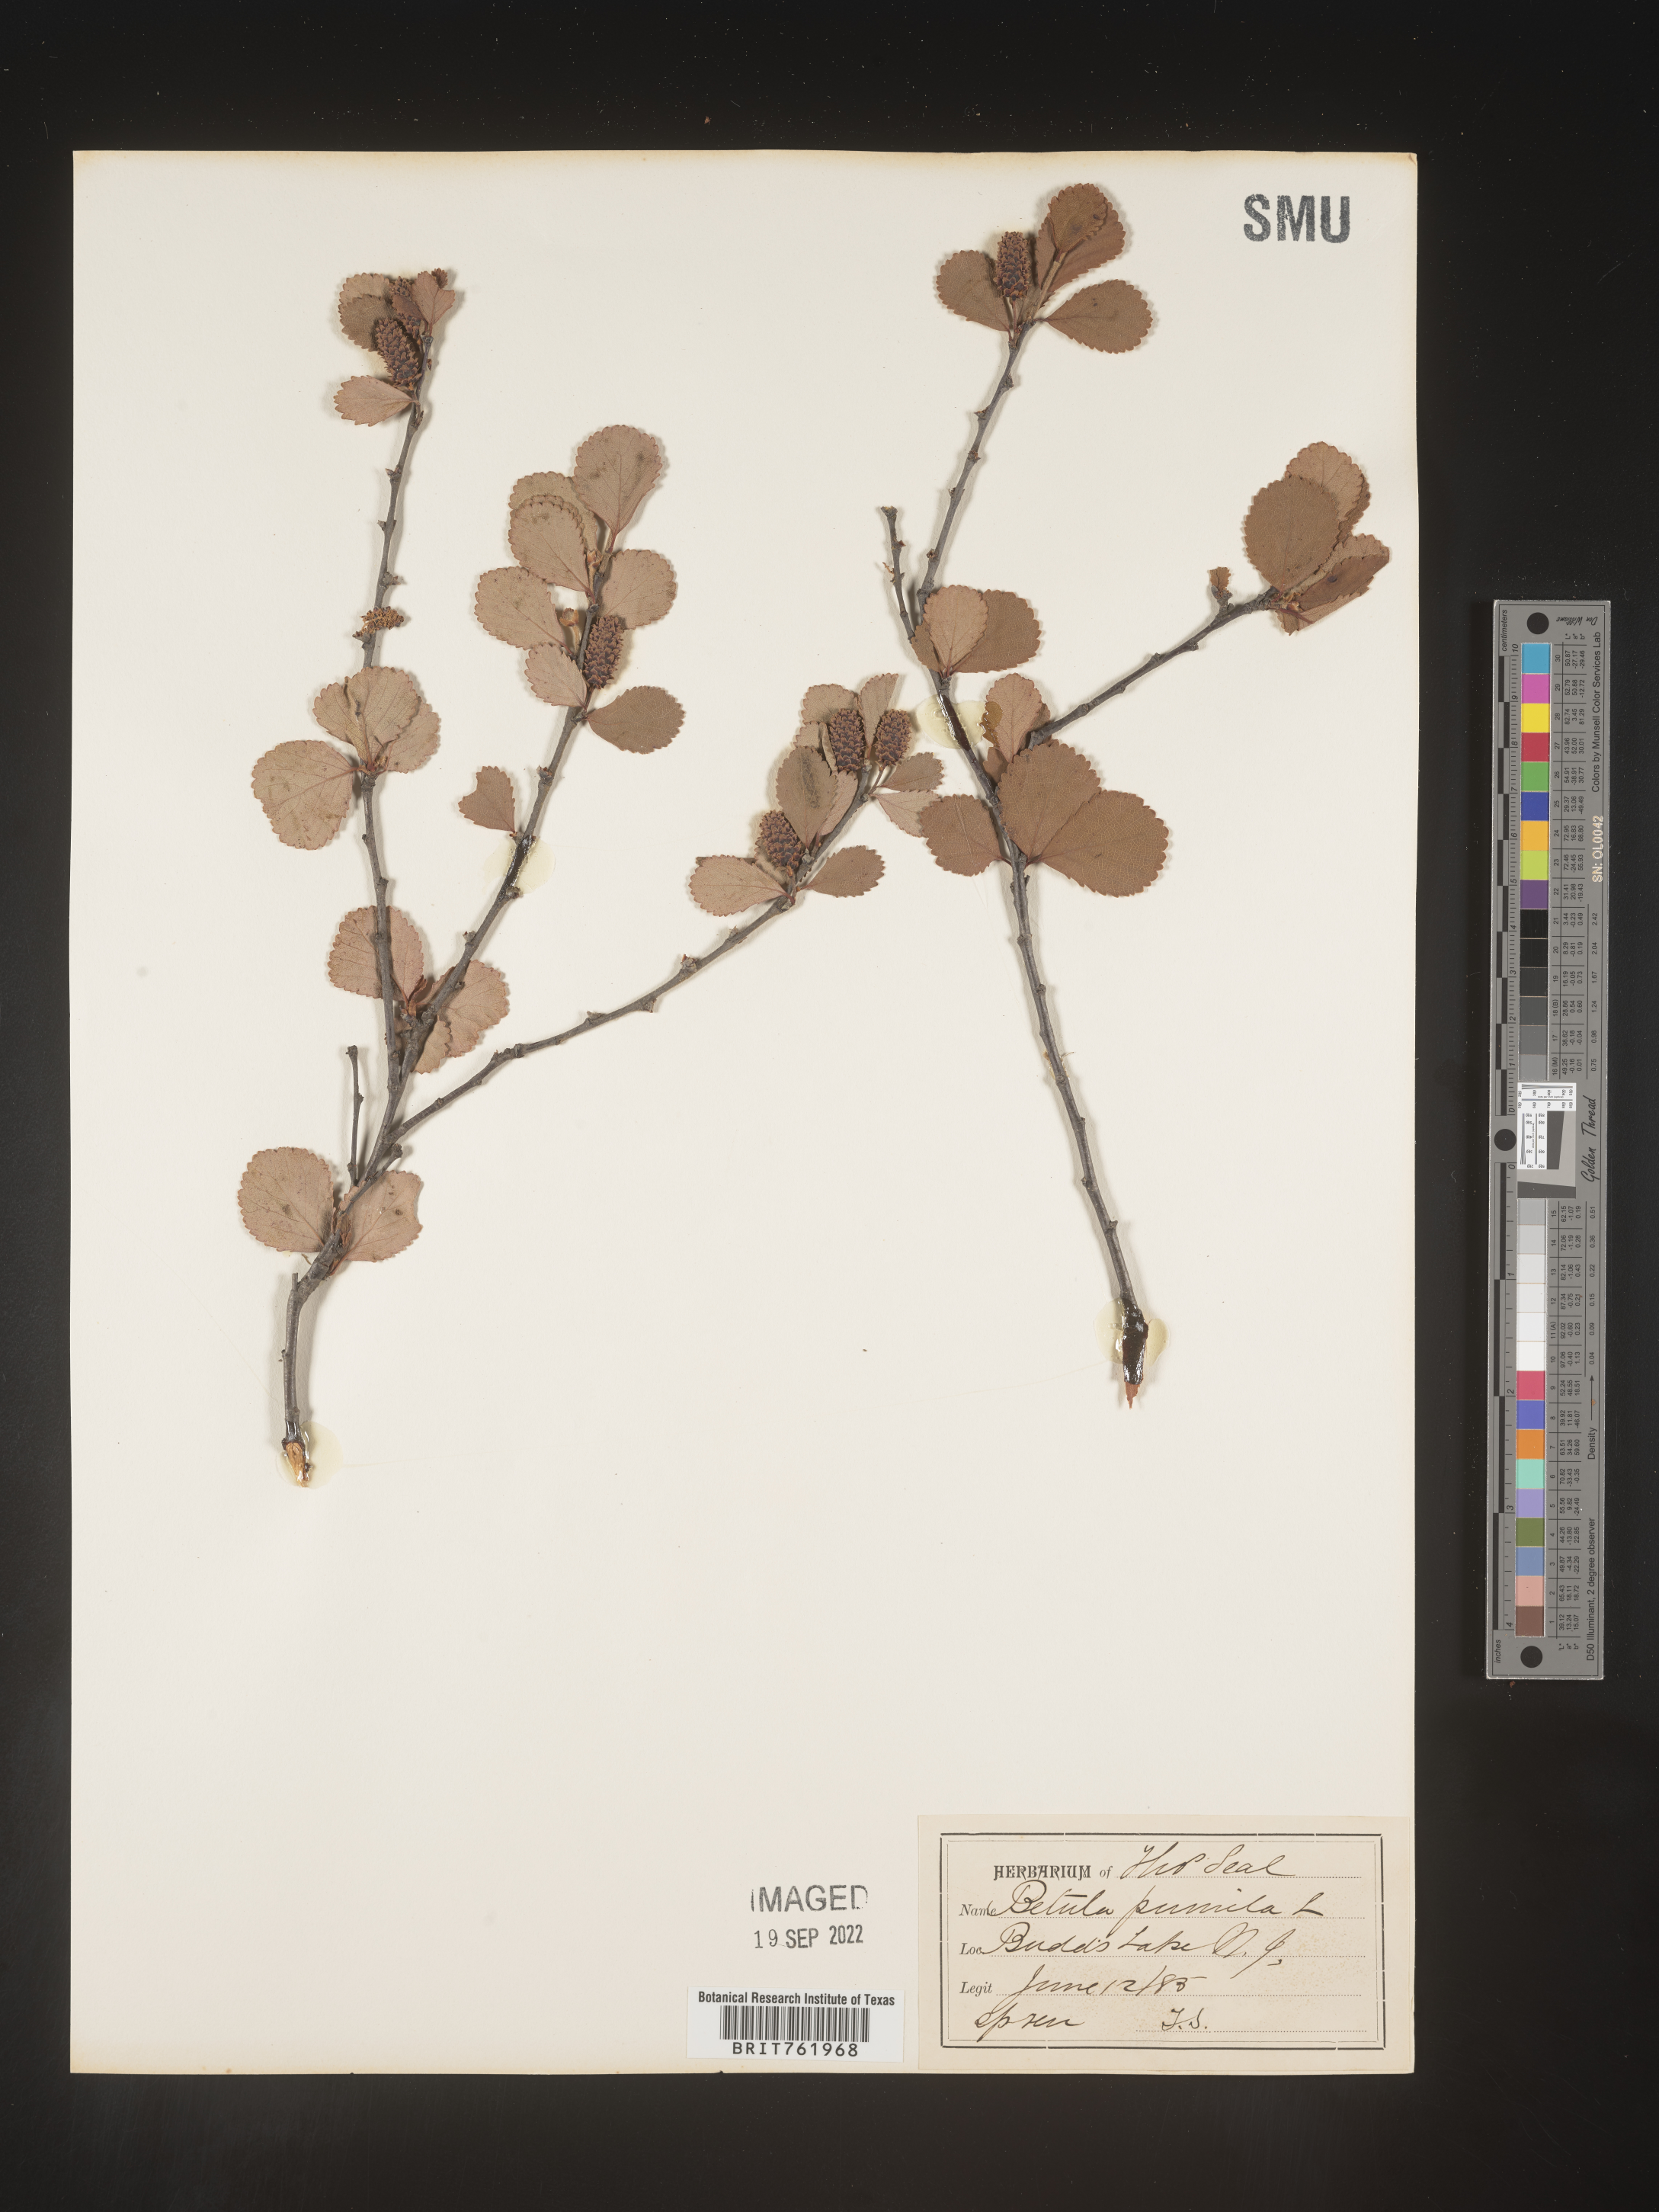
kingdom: Plantae
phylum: Tracheophyta
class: Magnoliopsida
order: Fagales
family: Betulaceae
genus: Betula
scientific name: Betula pumila
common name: Bog birch
